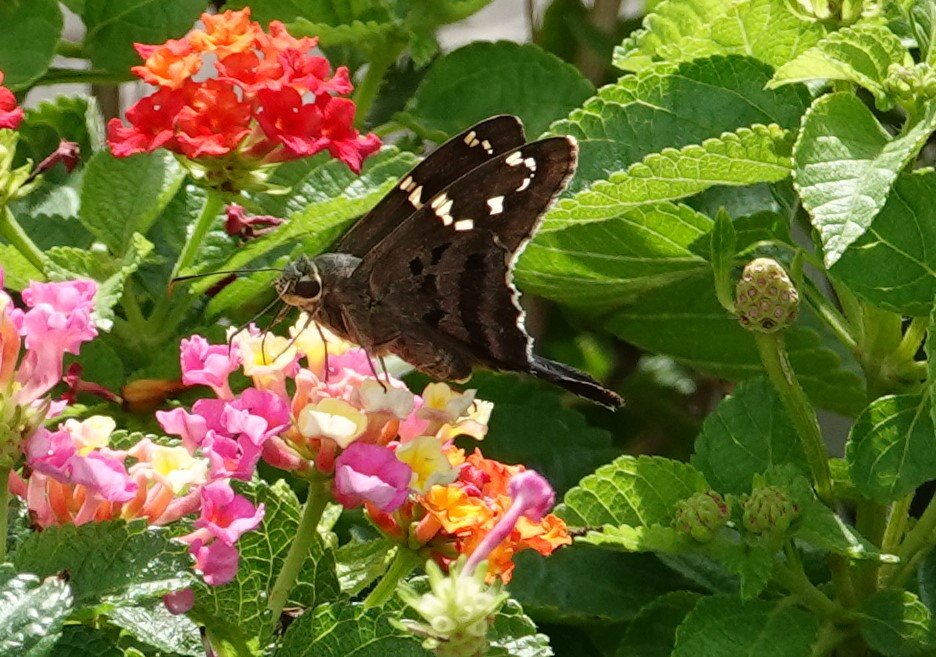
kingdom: Animalia
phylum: Arthropoda
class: Insecta
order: Lepidoptera
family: Hesperiidae
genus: Urbanus
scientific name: Urbanus proteus
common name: Long-tailed Skipper
